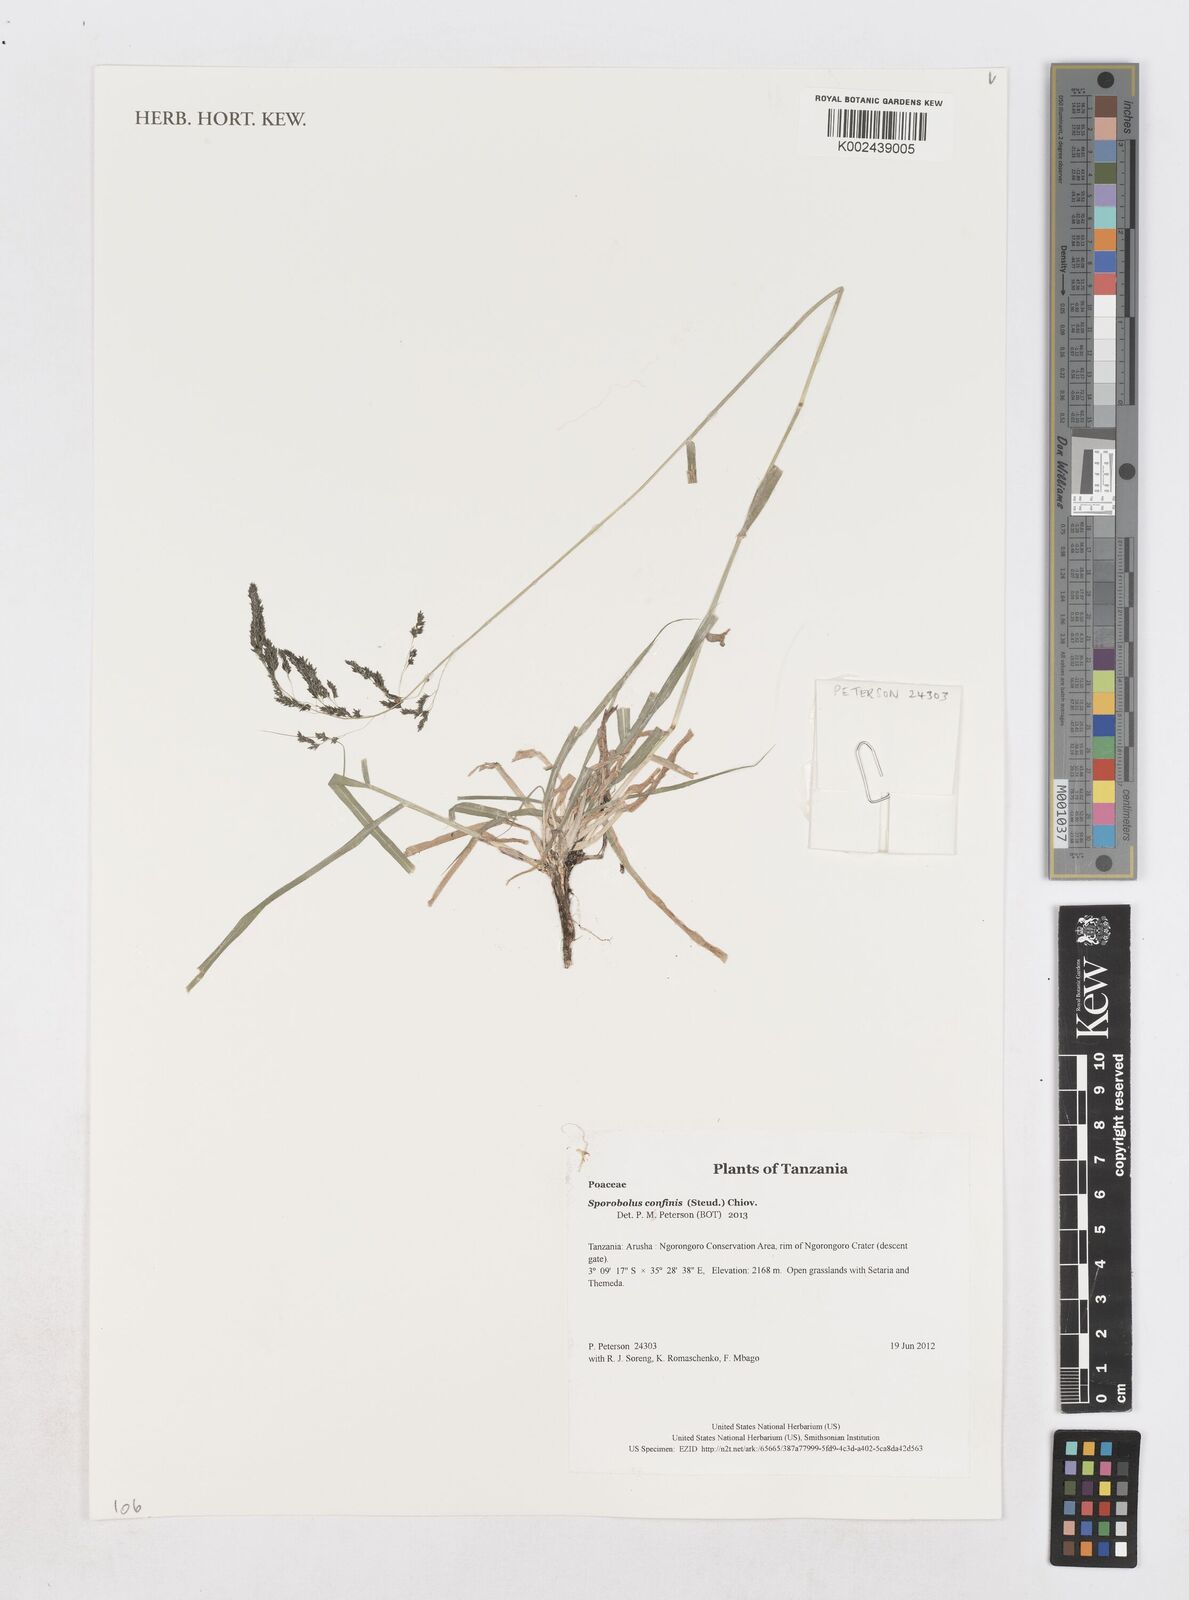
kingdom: Plantae
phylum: Tracheophyta
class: Liliopsida
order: Poales
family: Poaceae
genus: Sporobolus
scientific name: Sporobolus confinis
